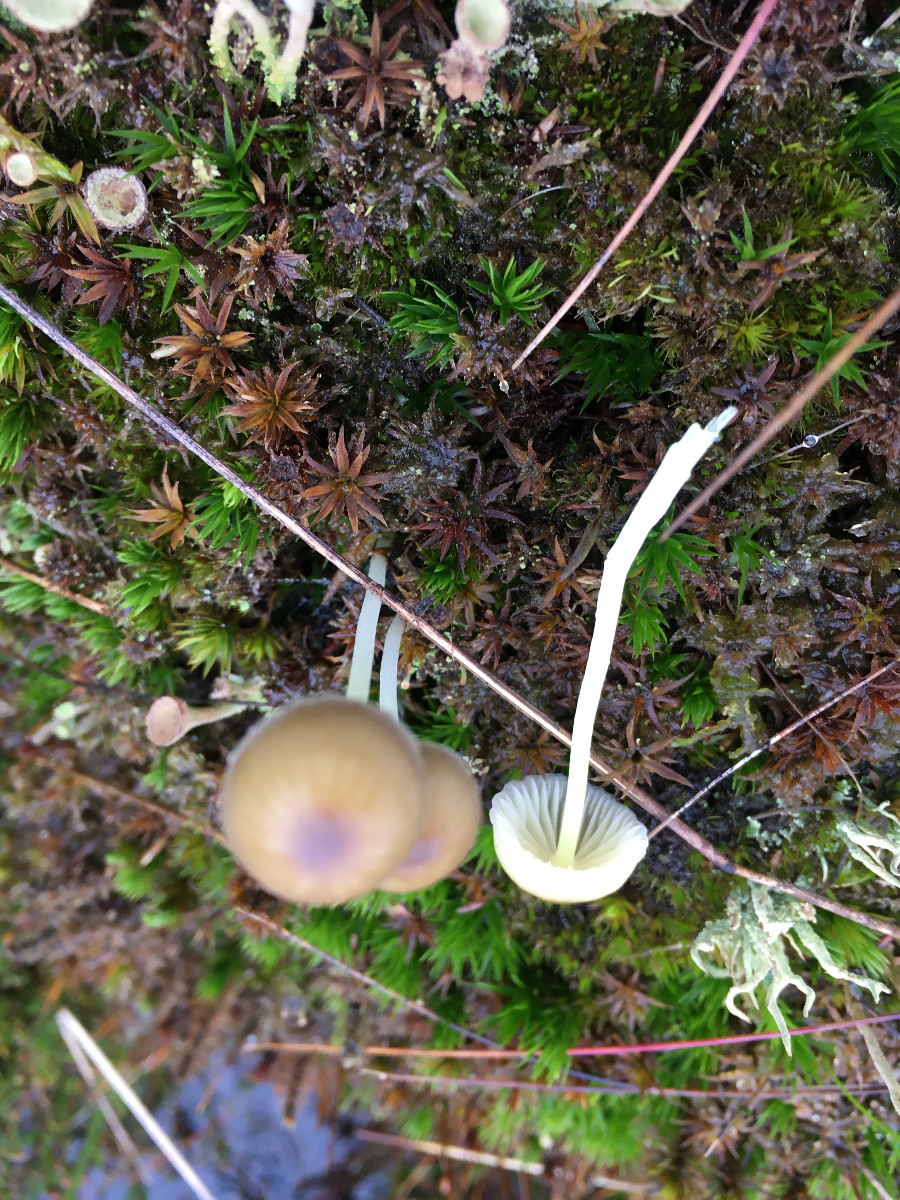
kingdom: Fungi
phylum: Basidiomycota
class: Agaricomycetes
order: Agaricales
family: Mycenaceae
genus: Mycena
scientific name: Mycena epipterygia
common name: gulstokket huesvamp
